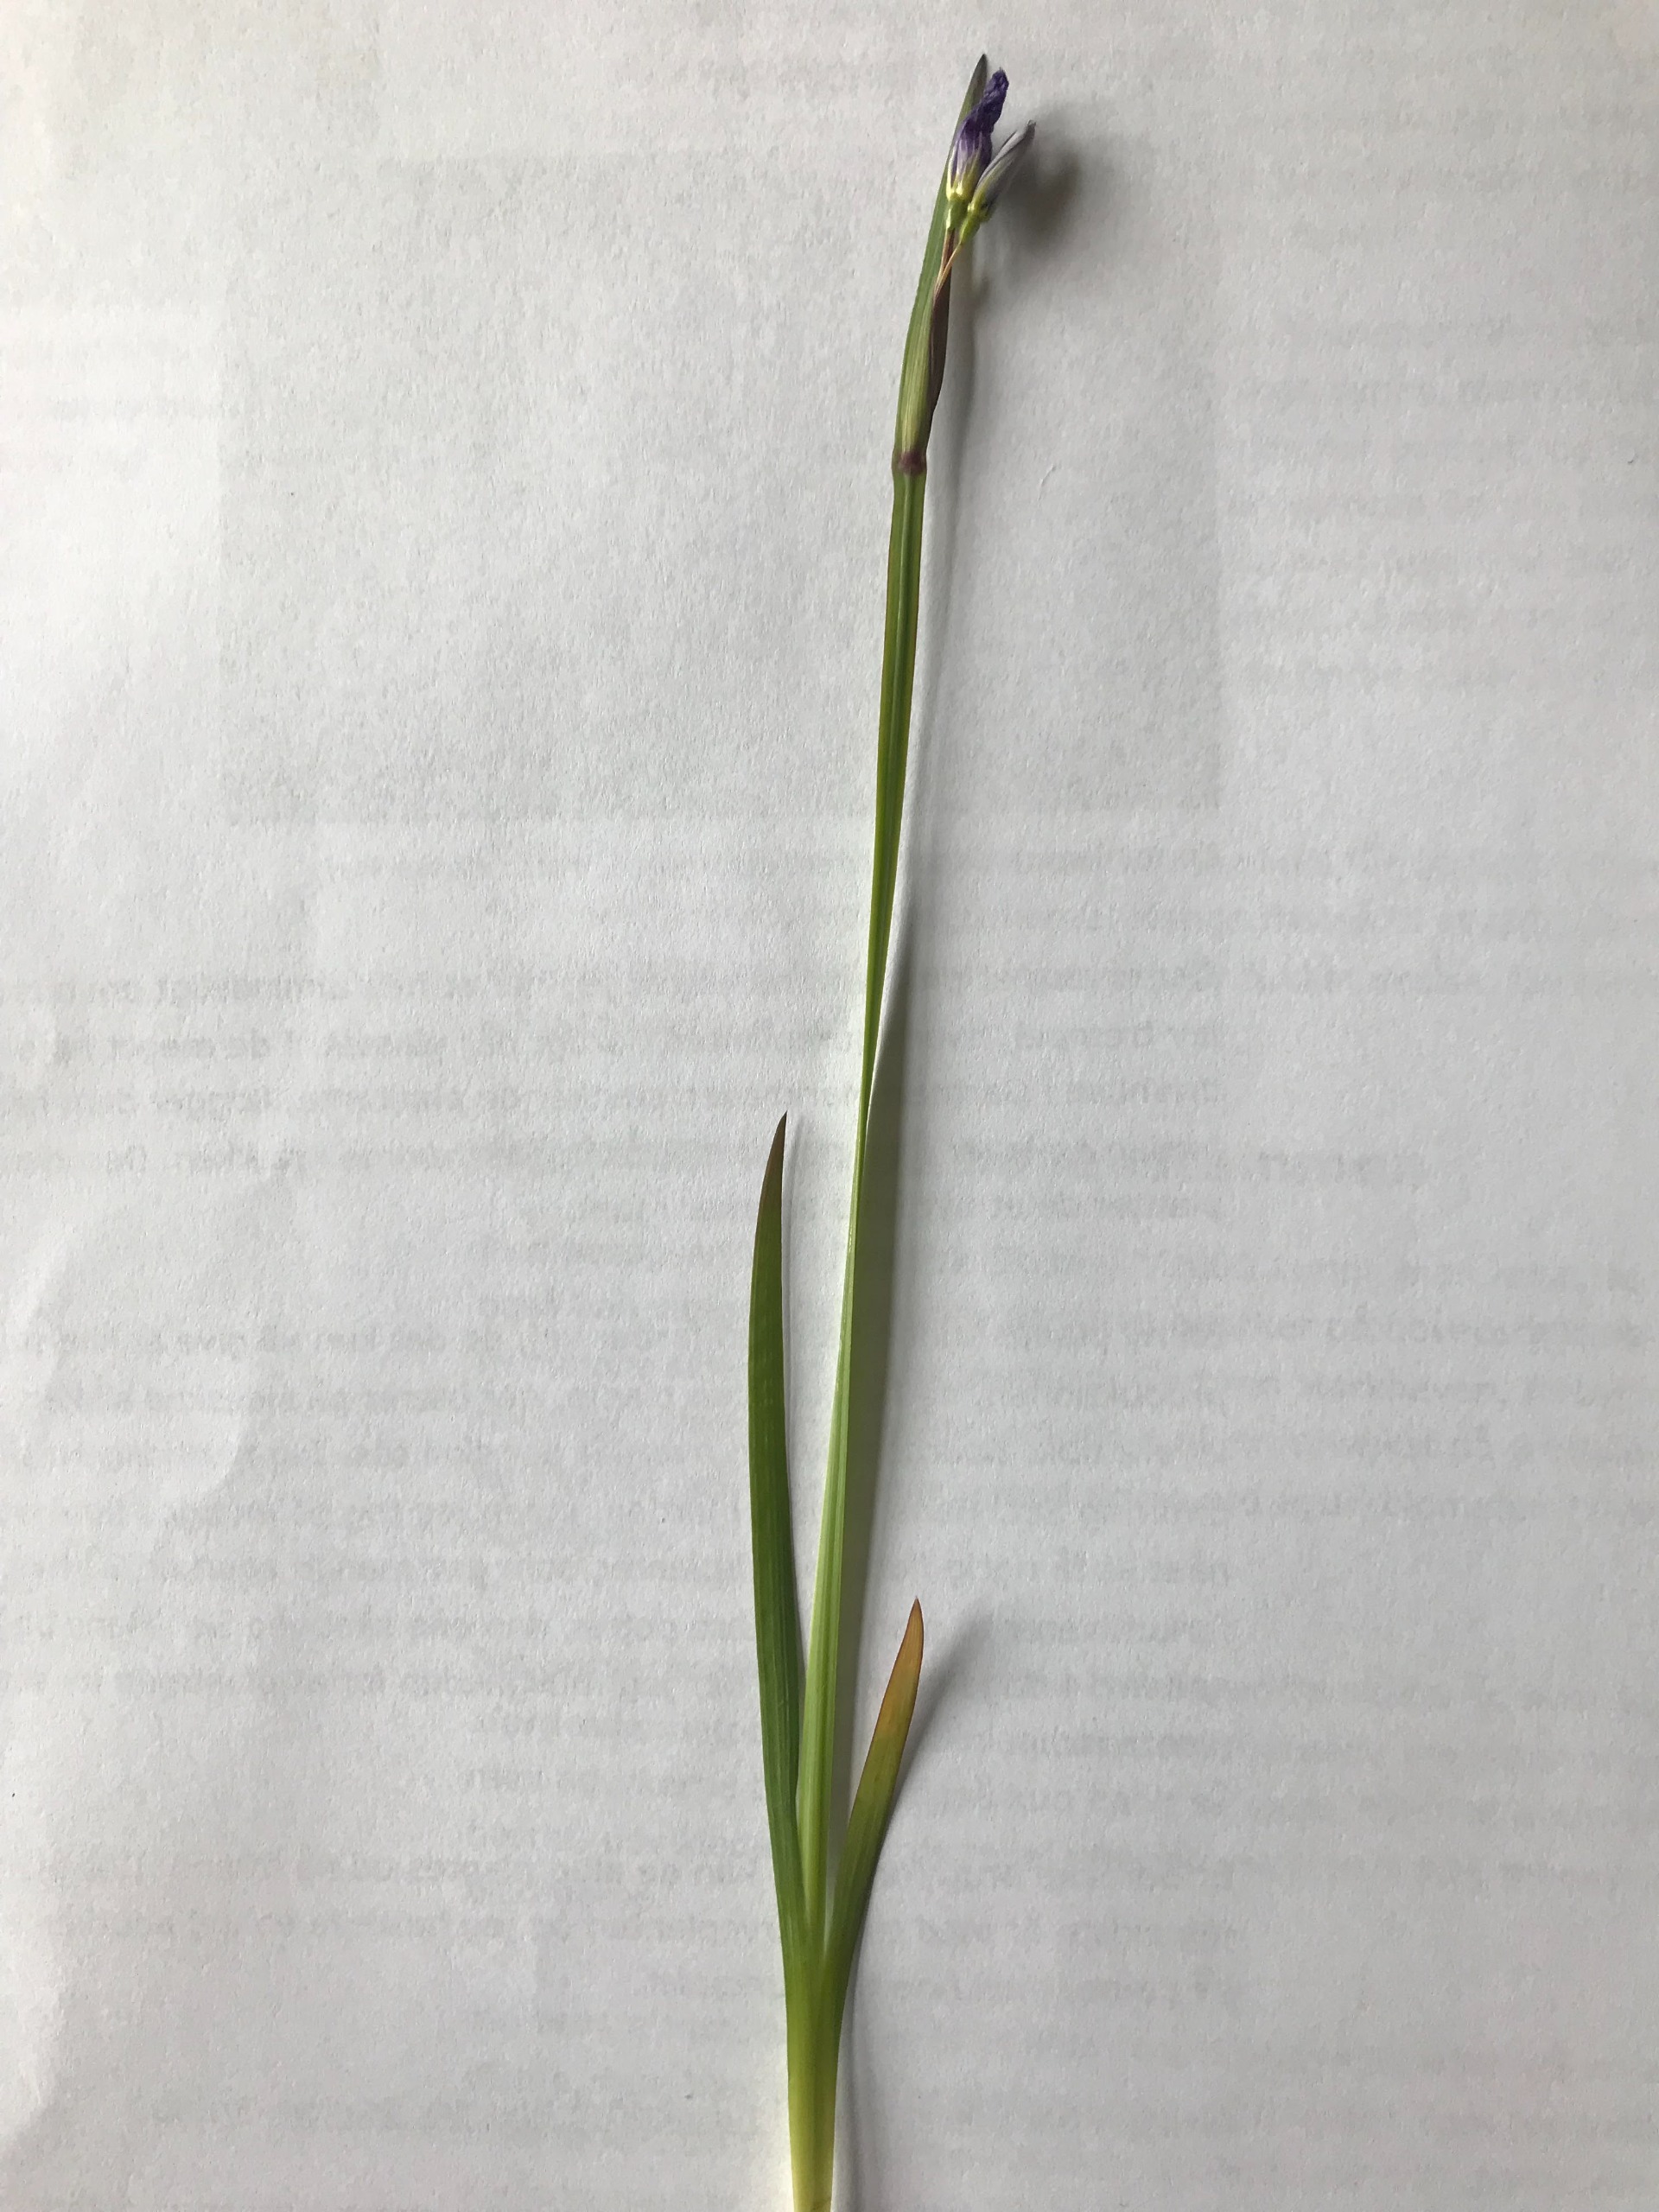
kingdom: Plantae
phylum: Tracheophyta
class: Liliopsida
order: Asparagales
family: Iridaceae
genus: Sisyrinchium
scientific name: Sisyrinchium montanum
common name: Blåøje
